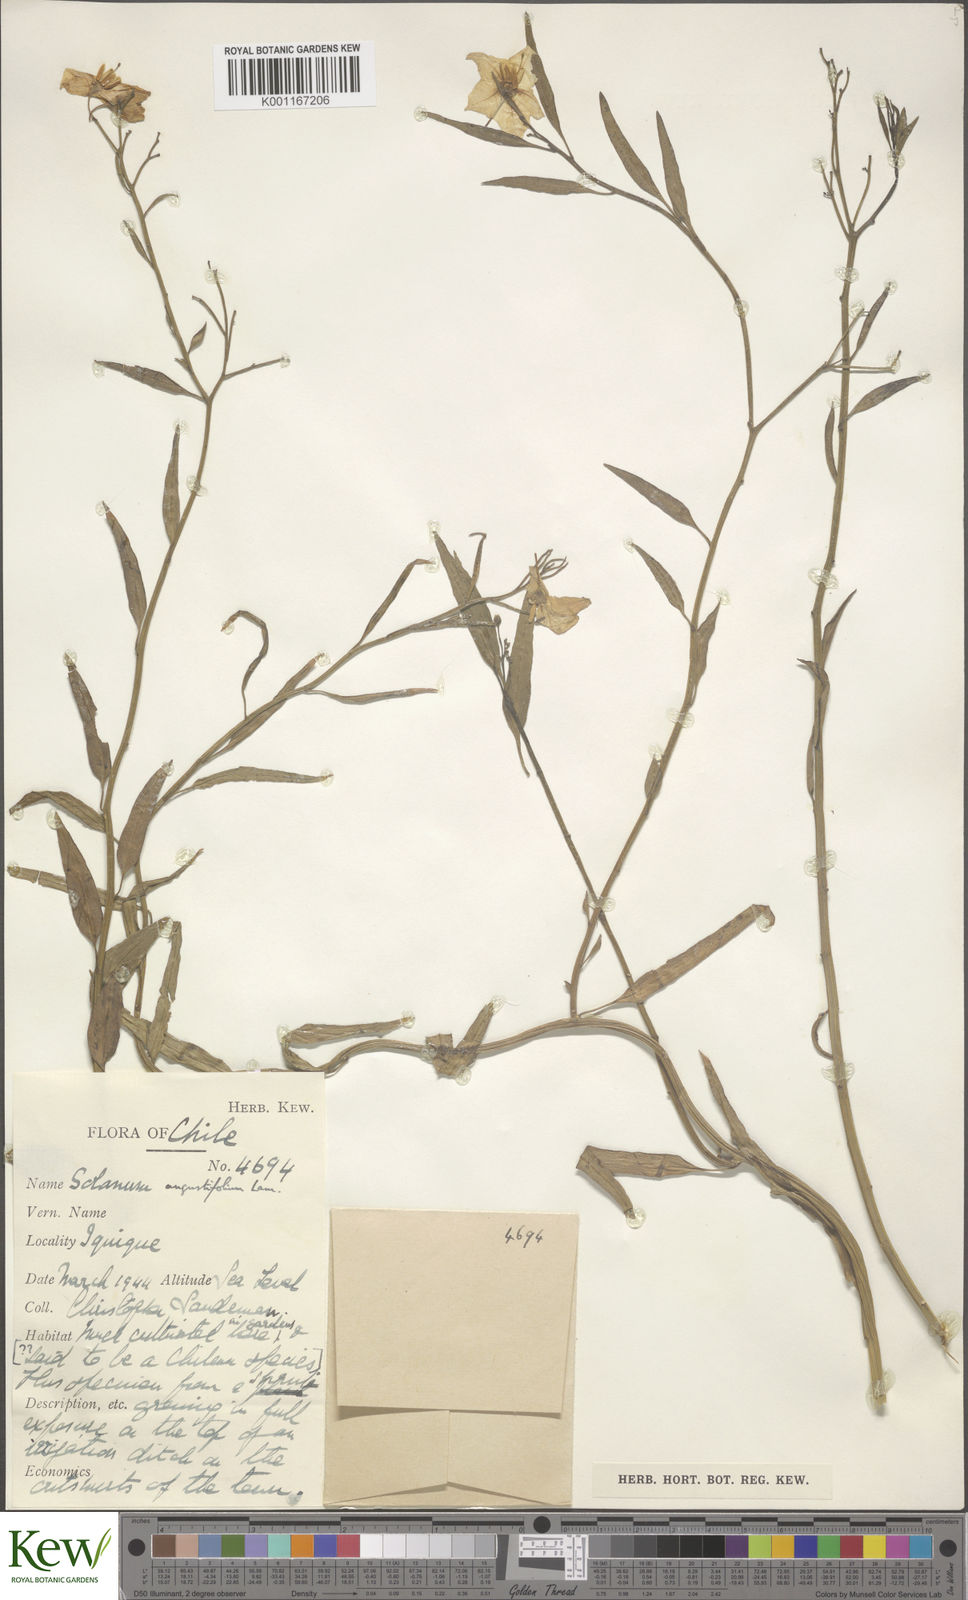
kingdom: Plantae
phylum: Tracheophyta
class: Magnoliopsida
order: Solanales
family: Solanaceae
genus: Solanum
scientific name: Solanum amygdalifolium
